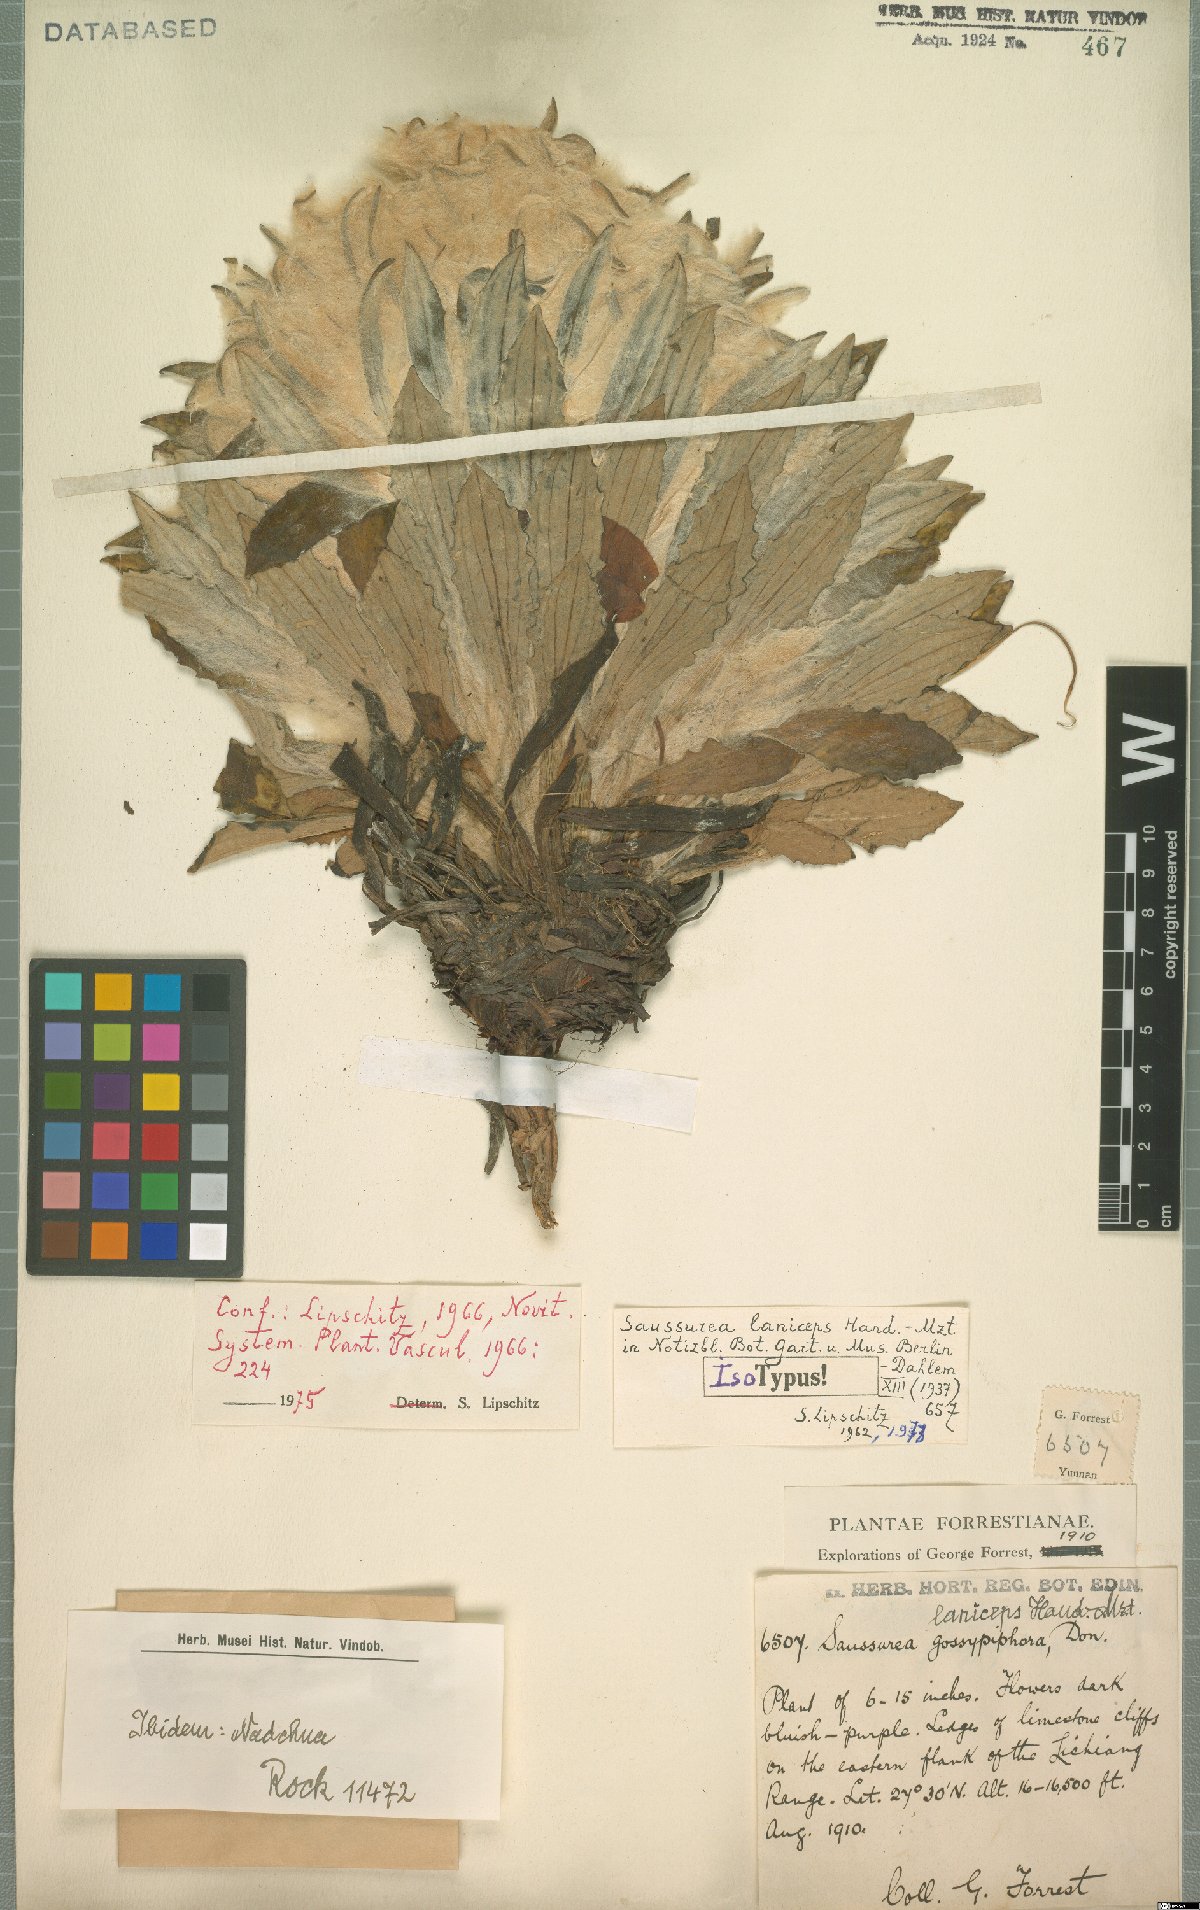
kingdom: Plantae
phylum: Tracheophyta
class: Magnoliopsida
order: Asterales
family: Asteraceae
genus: Saussurea
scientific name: Saussurea laniceps
